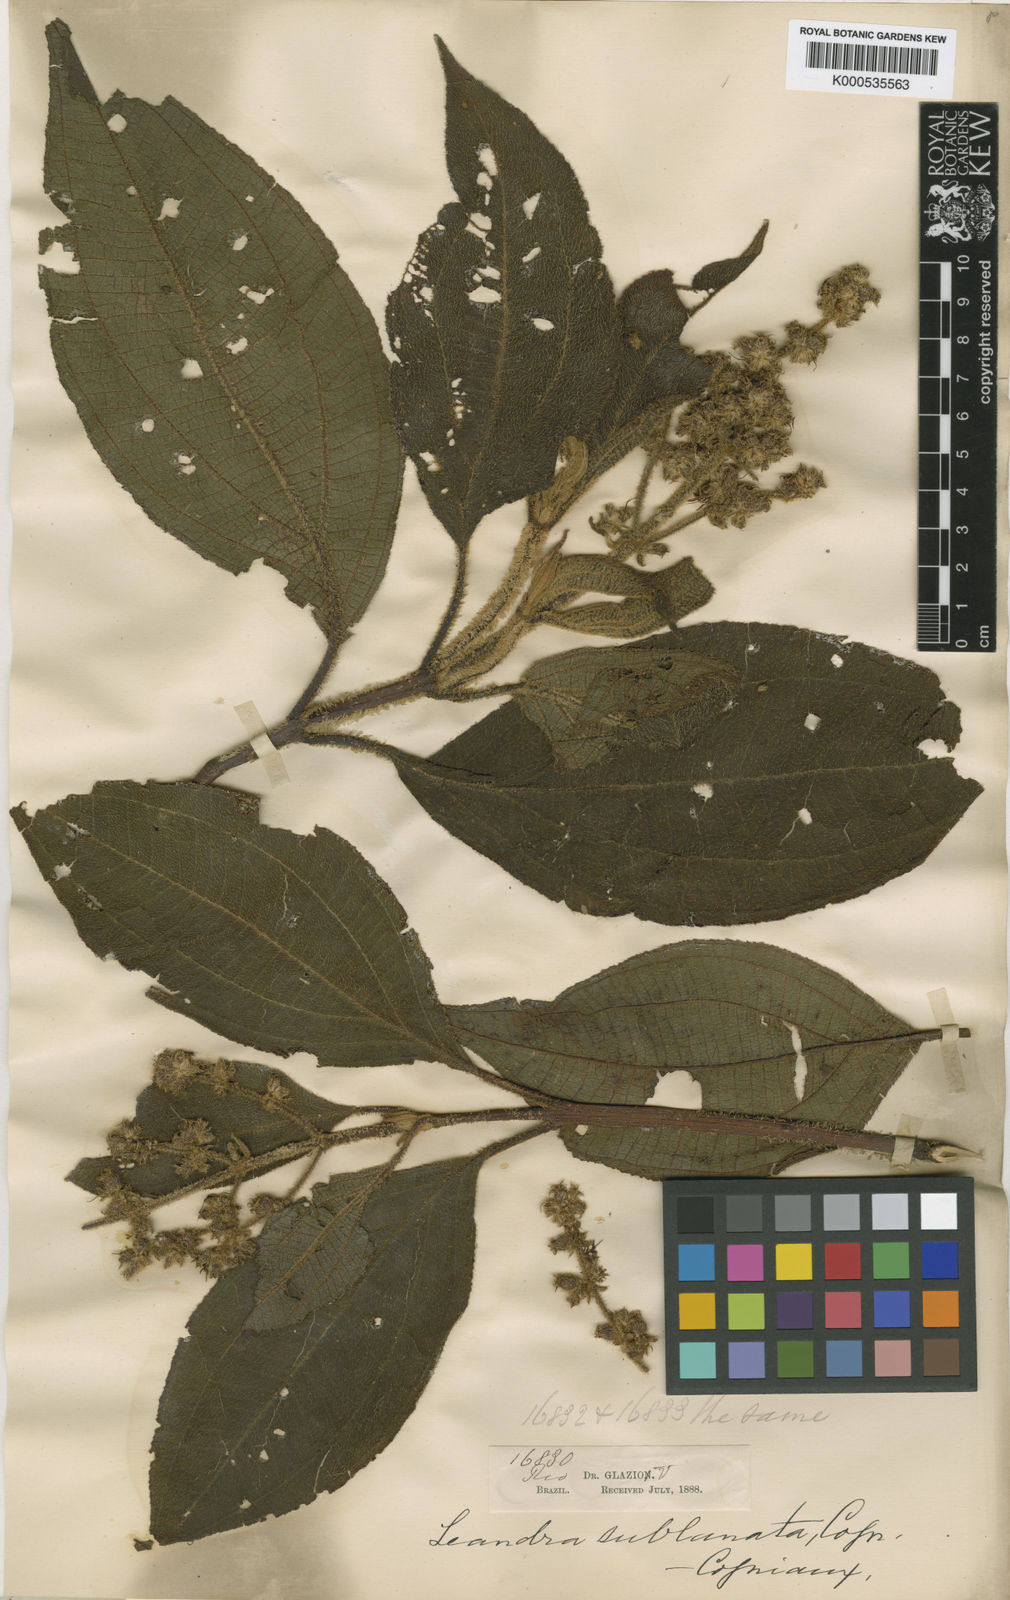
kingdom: Plantae
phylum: Tracheophyta
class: Magnoliopsida
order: Myrtales
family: Melastomataceae
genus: Miconia
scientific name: Miconia sublanata
